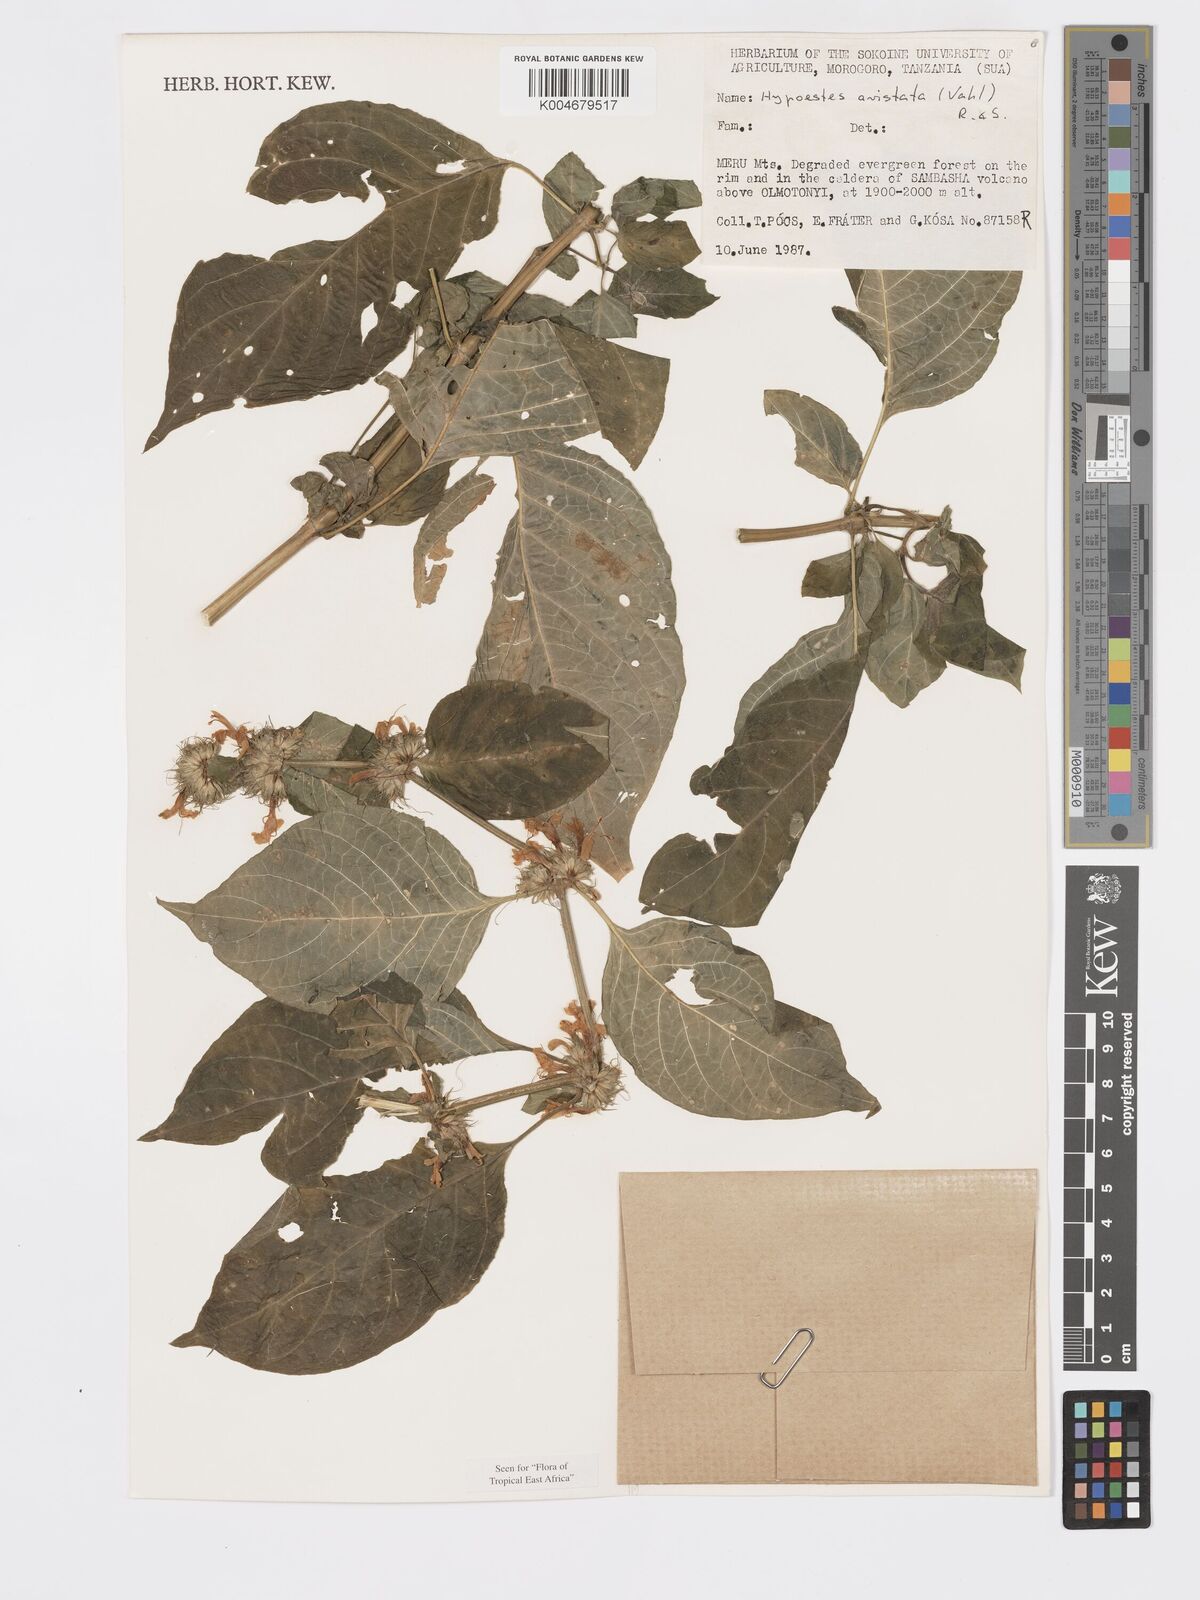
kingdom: Plantae
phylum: Tracheophyta
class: Magnoliopsida
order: Lamiales
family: Acanthaceae
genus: Hypoestes
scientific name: Hypoestes aristata
